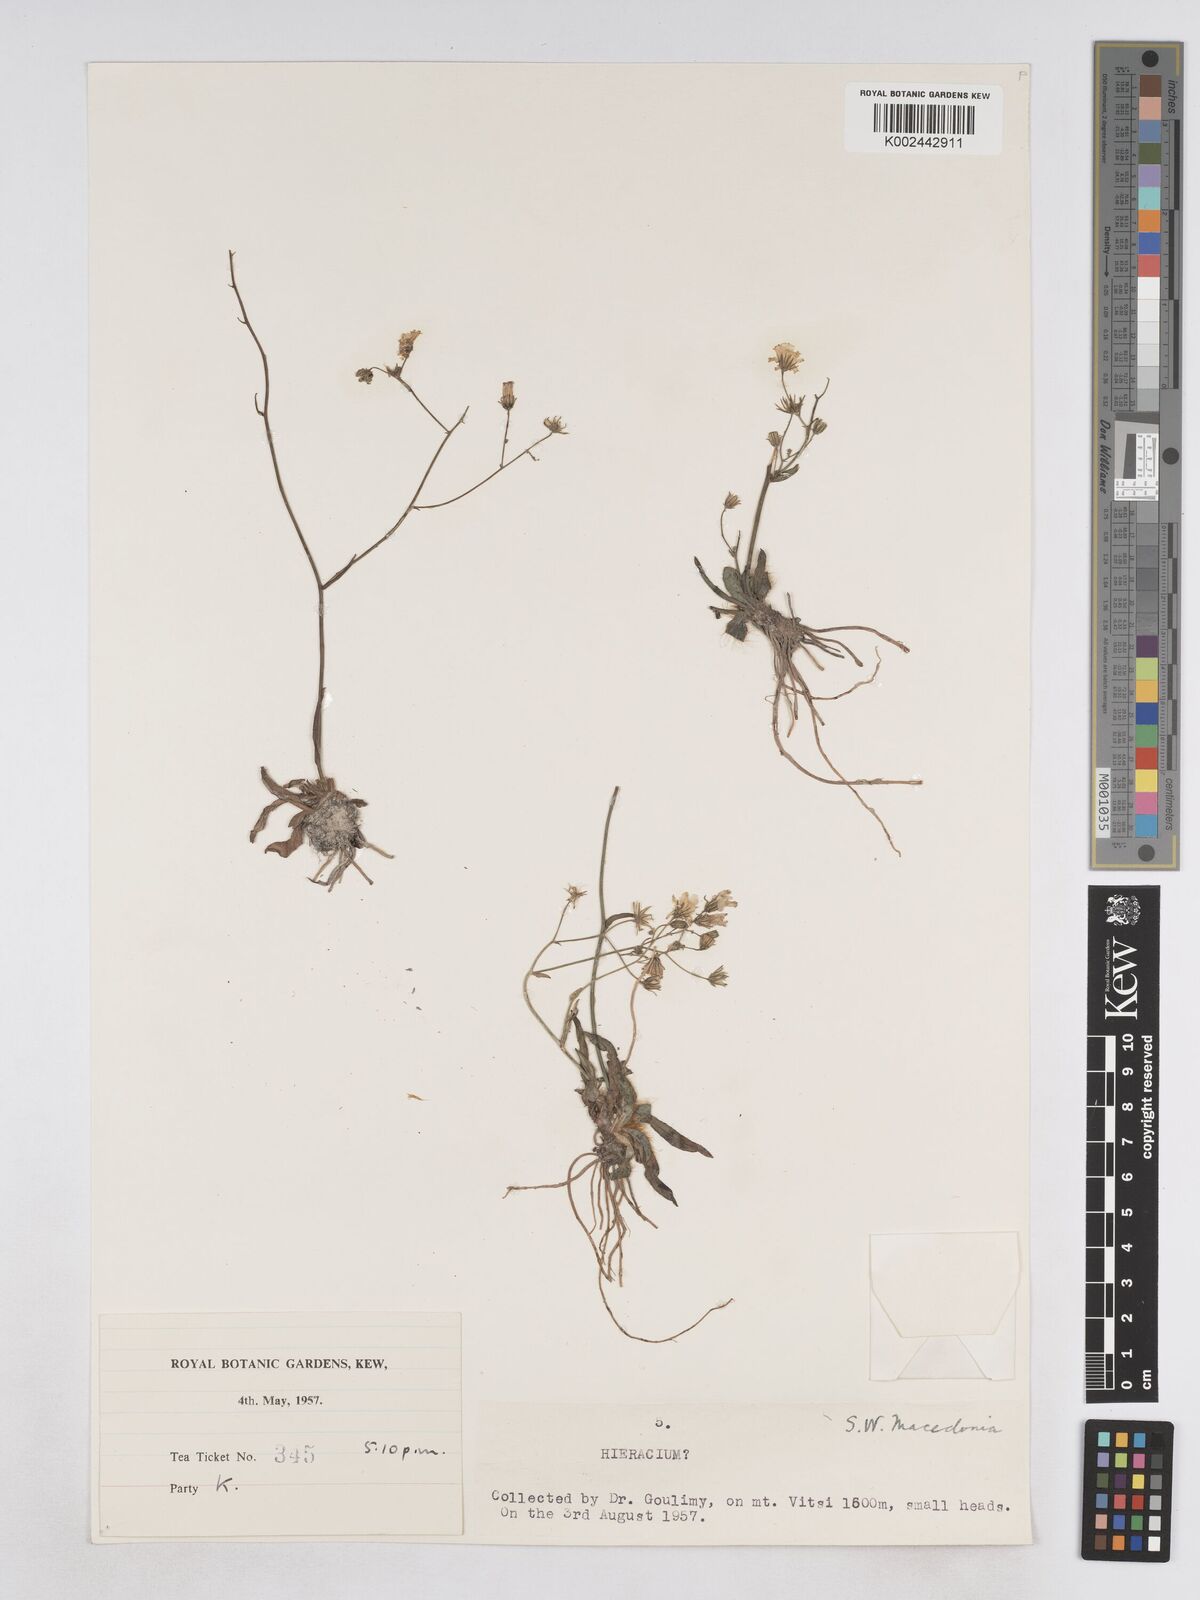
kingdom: Plantae
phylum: Tracheophyta
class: Magnoliopsida
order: Asterales
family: Asteraceae
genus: Pilosella
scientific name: Pilosella pavichii
